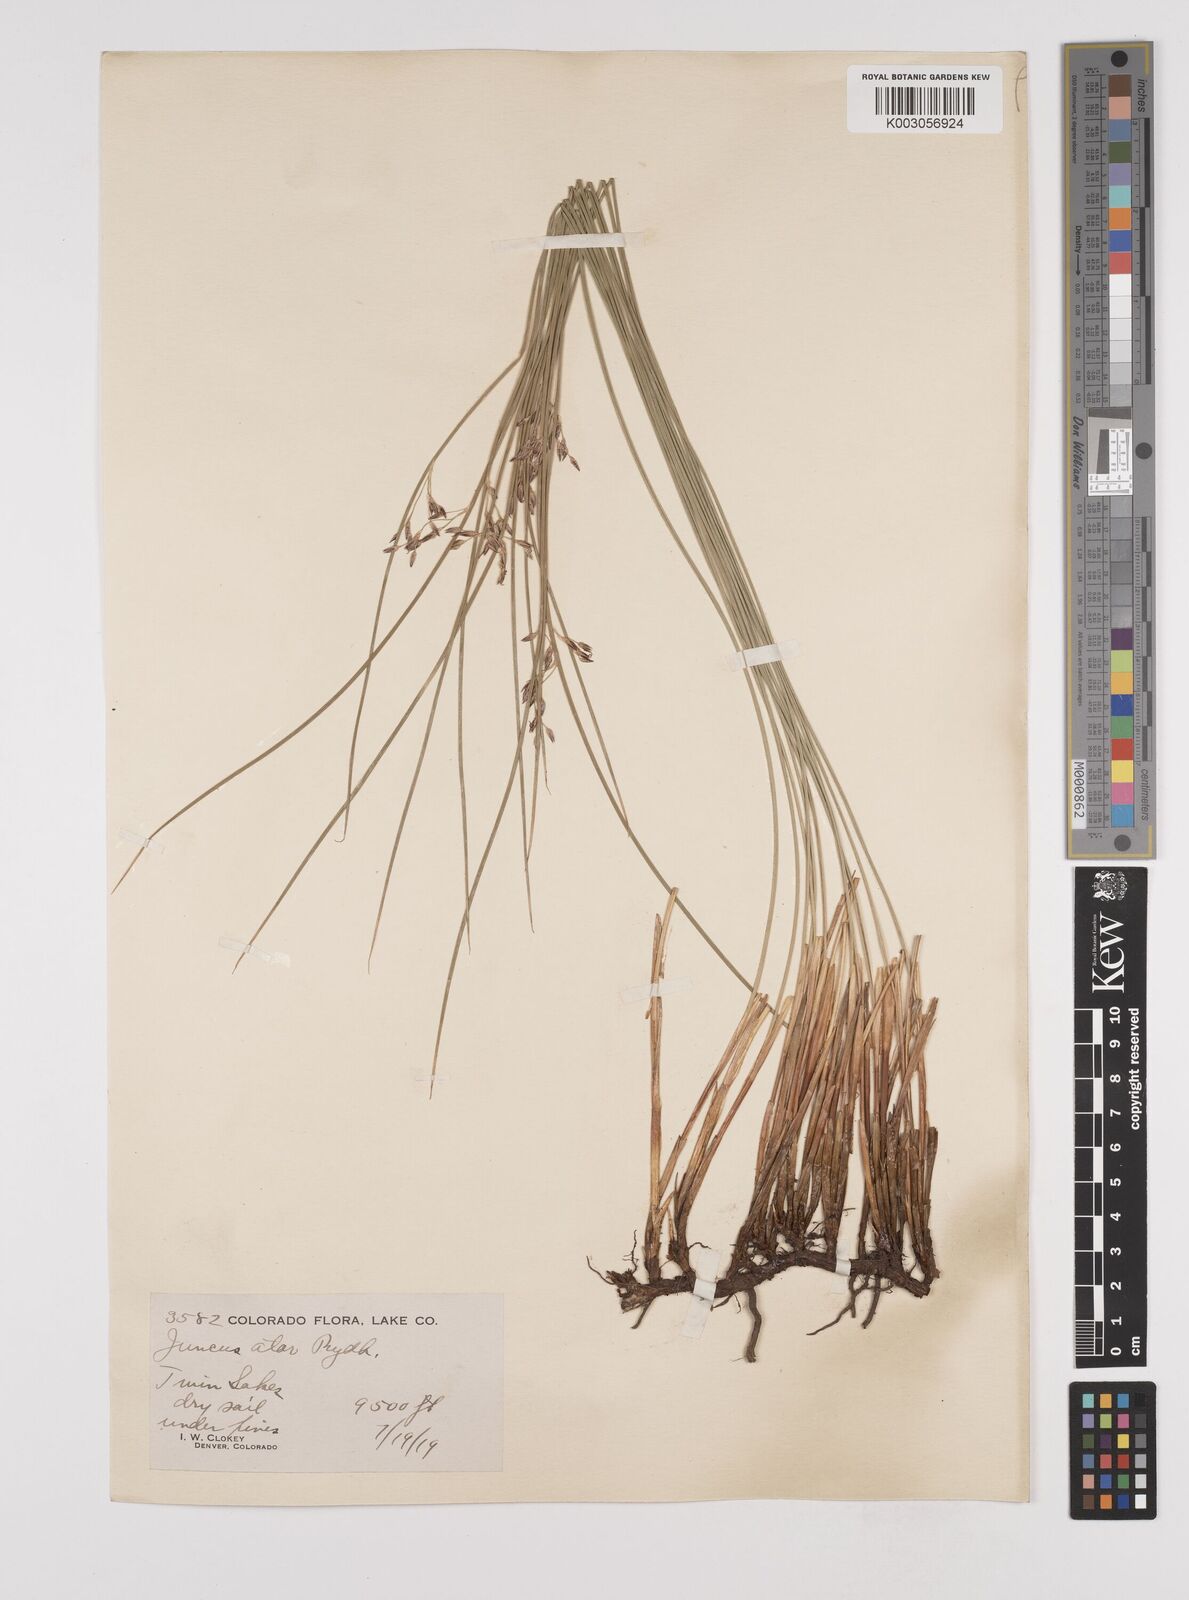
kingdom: Plantae
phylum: Tracheophyta
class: Liliopsida
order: Poales
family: Juncaceae
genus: Juncus
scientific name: Juncus balticus
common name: Baltic rush
